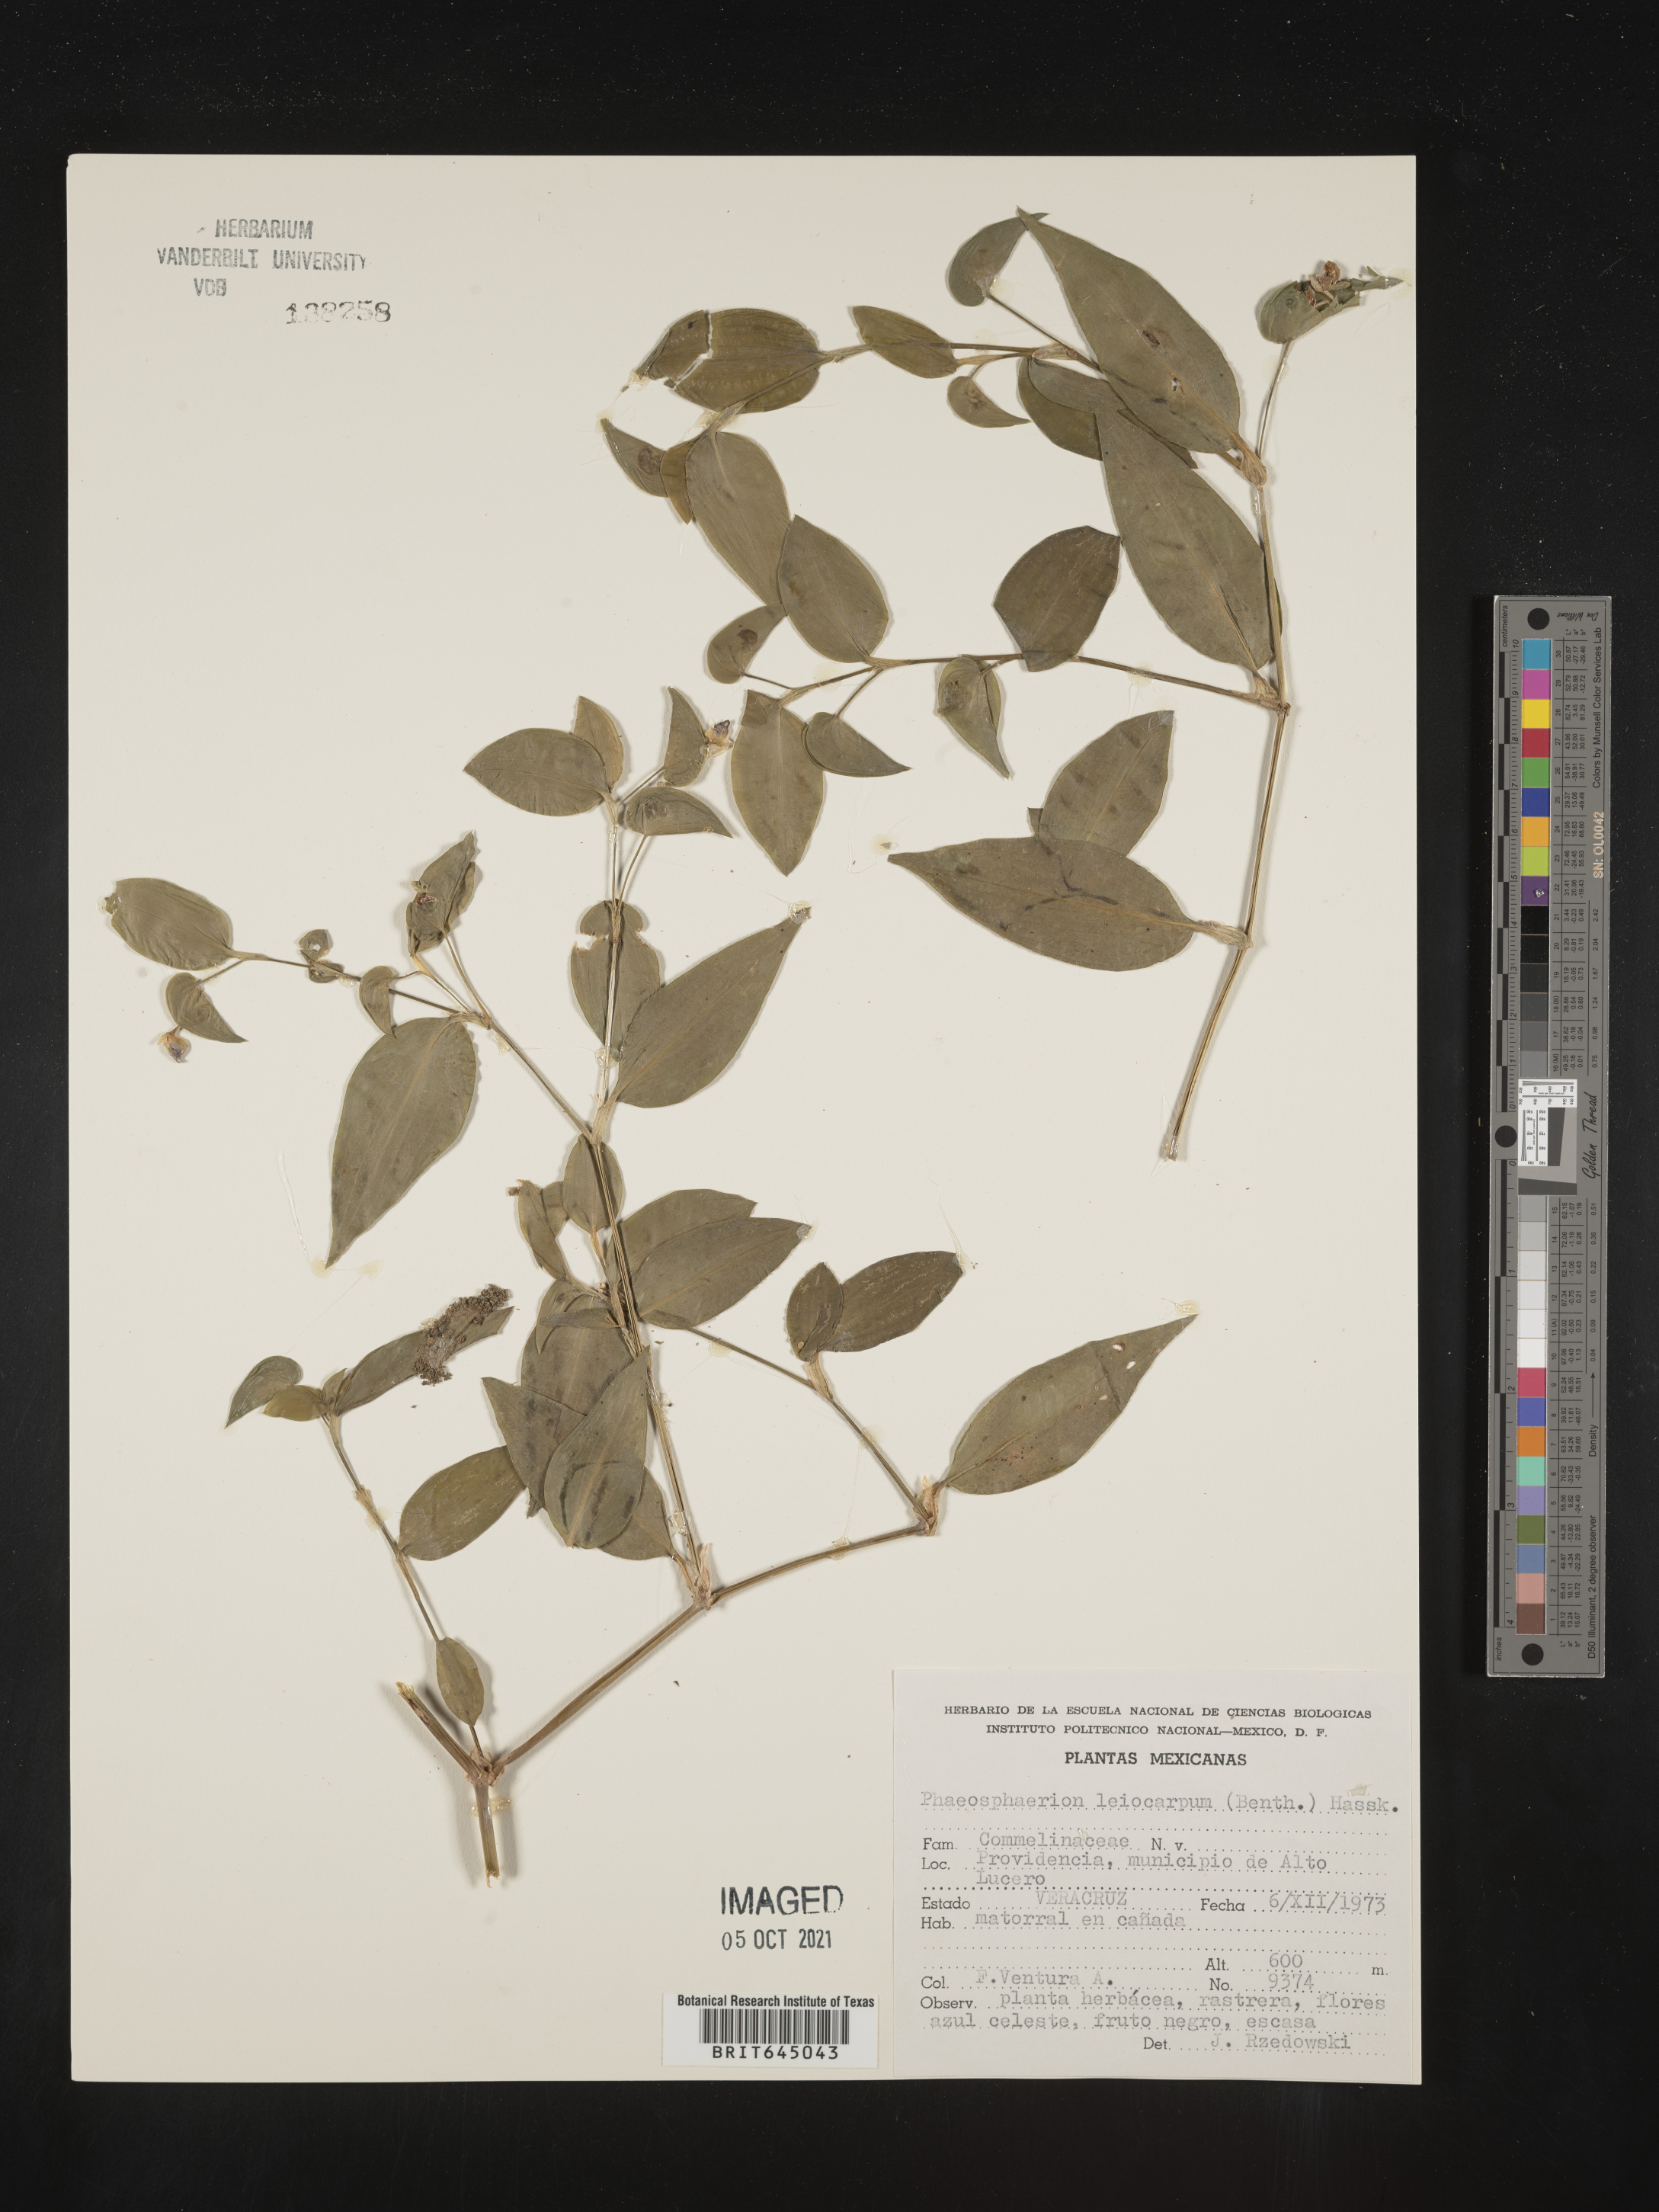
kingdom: Plantae
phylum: Tracheophyta
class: Liliopsida
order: Commelinales
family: Commelinaceae
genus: Commelina
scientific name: Commelina
